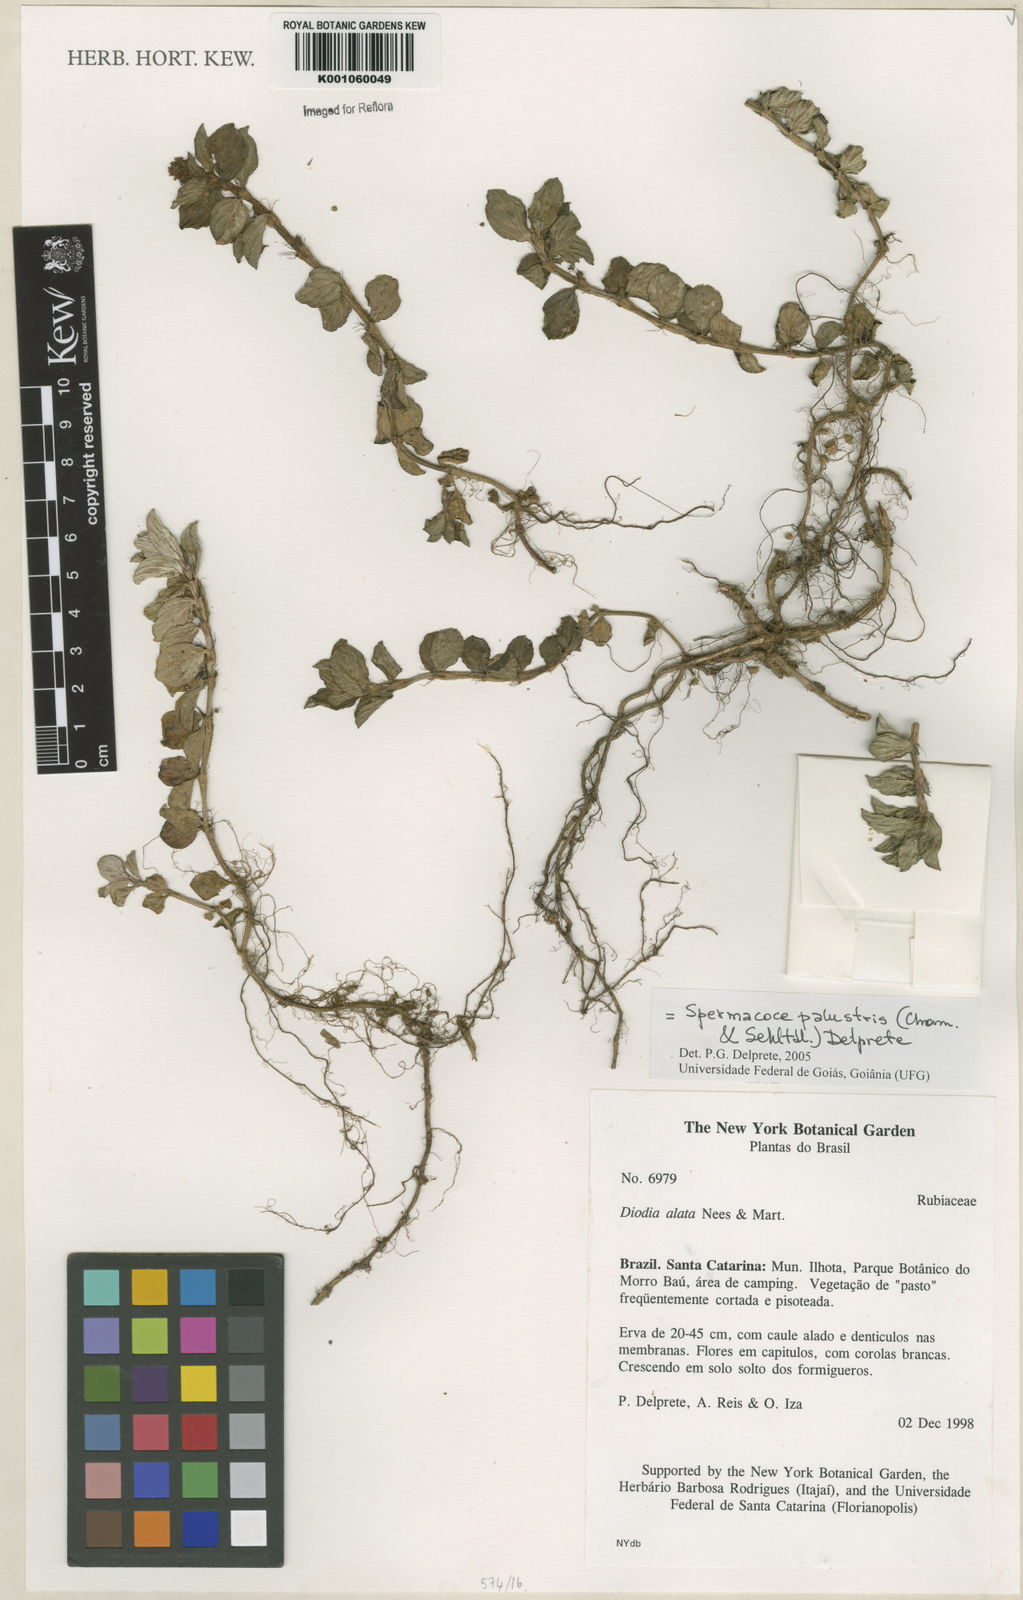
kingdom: Plantae
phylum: Tracheophyta
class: Magnoliopsida
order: Gentianales
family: Rubiaceae
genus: Galianthe
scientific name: Galianthe palustris
